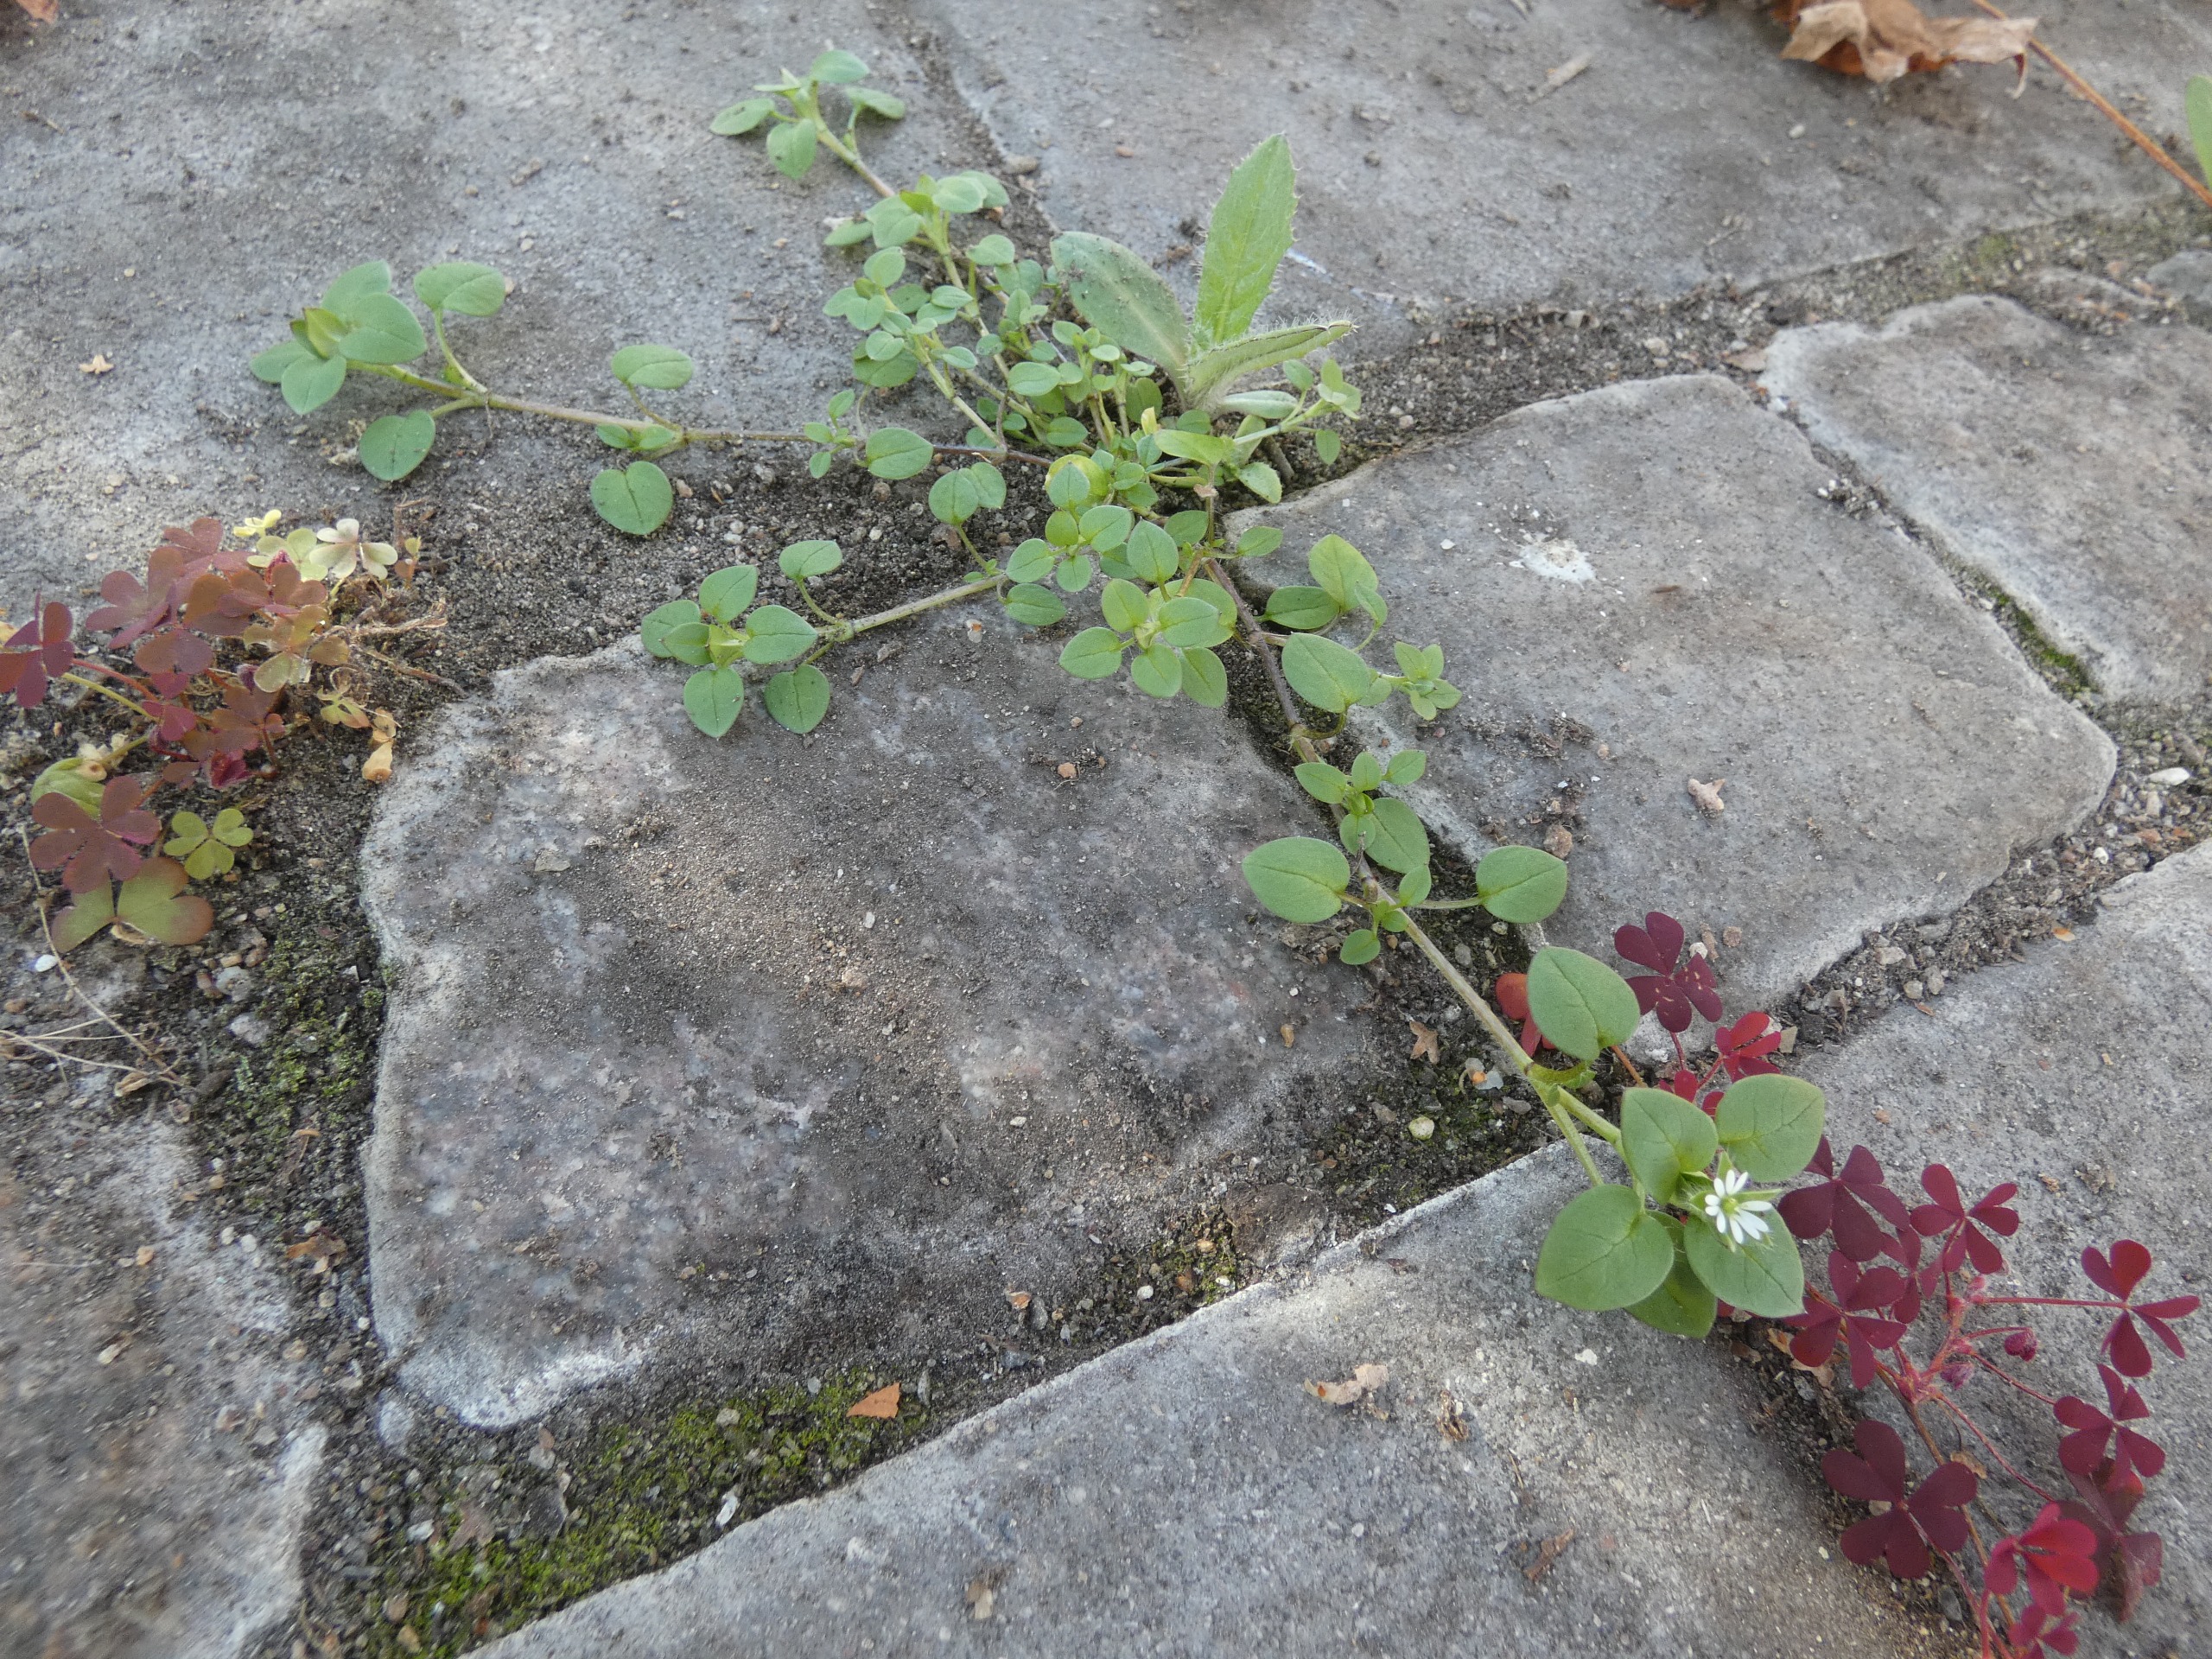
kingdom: Plantae
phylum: Tracheophyta
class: Magnoliopsida
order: Caryophyllales
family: Caryophyllaceae
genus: Stellaria
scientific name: Stellaria media
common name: Almindelig fuglegræs
